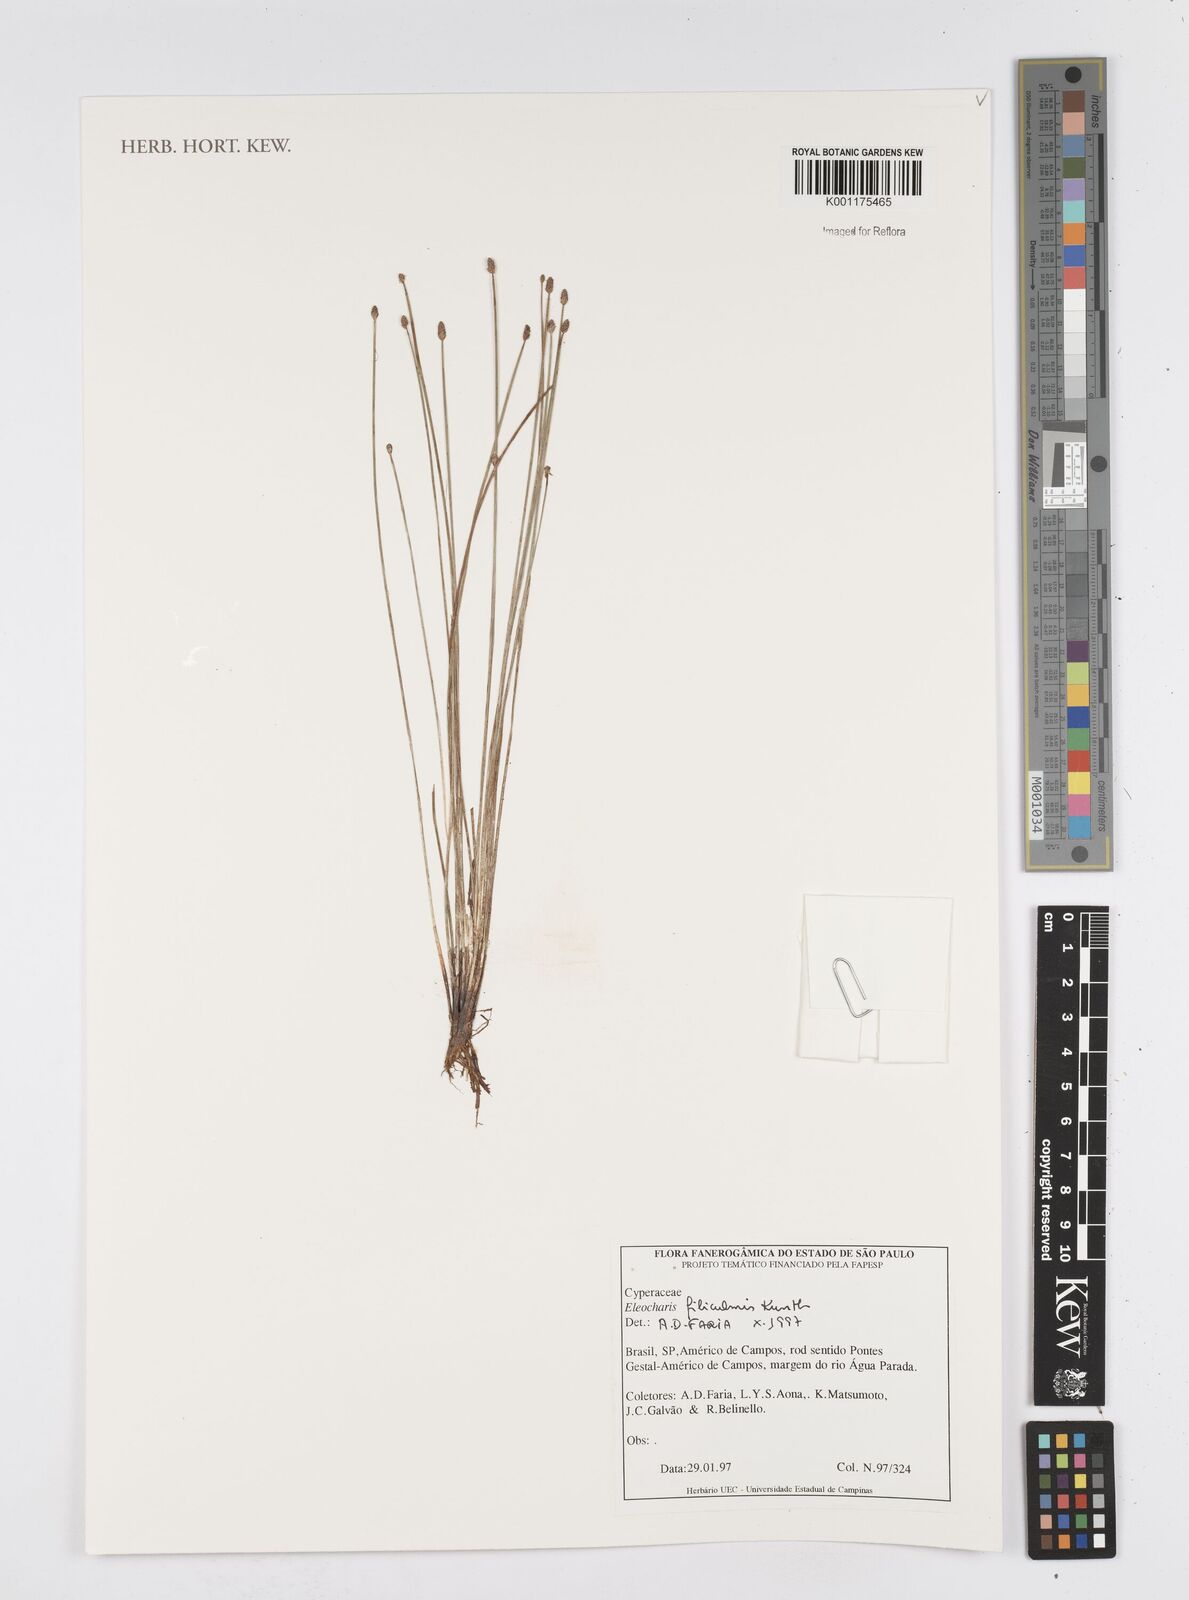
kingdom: Plantae
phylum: Tracheophyta
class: Liliopsida
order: Poales
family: Cyperaceae
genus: Eleocharis
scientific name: Eleocharis filiculmis
